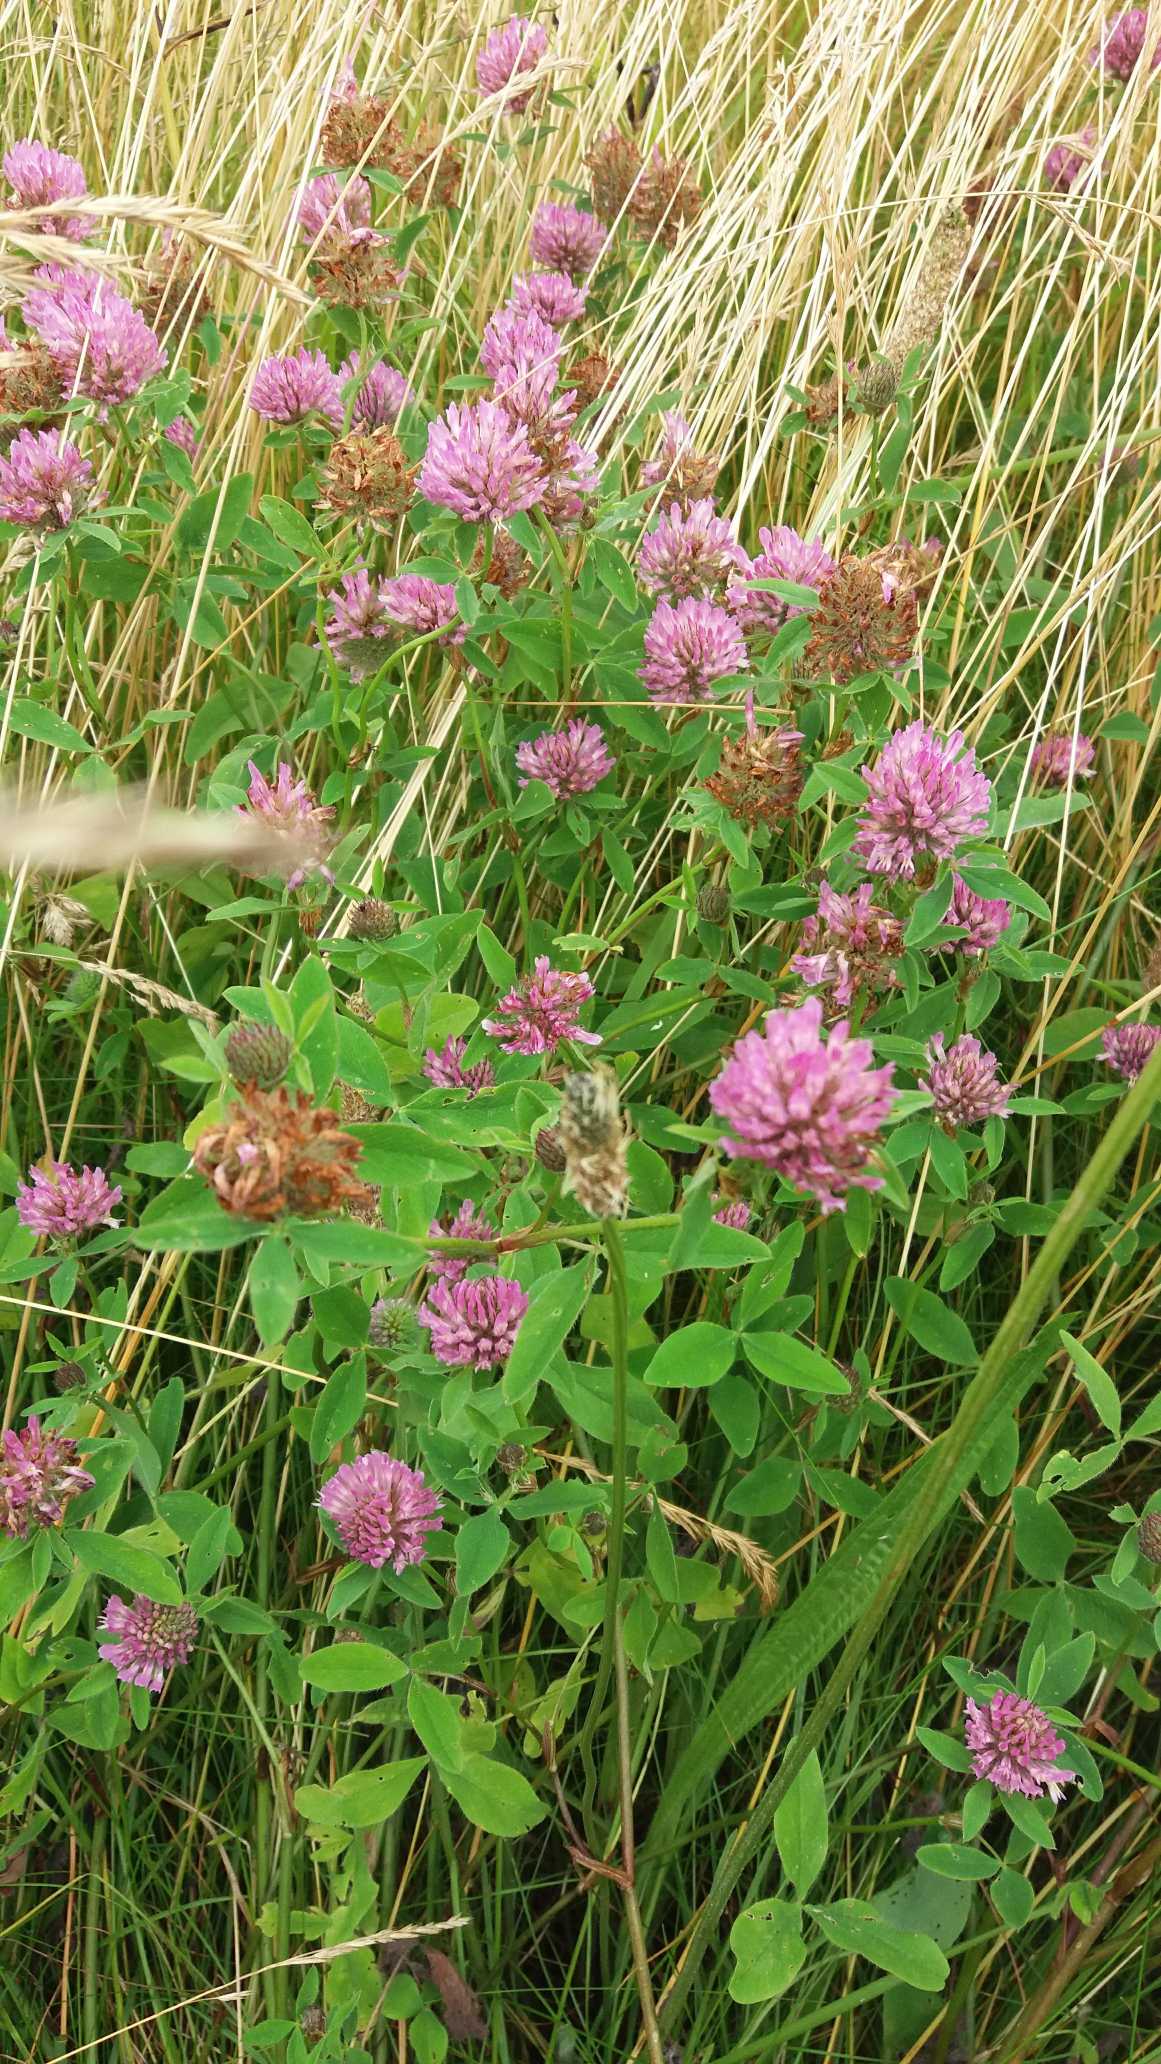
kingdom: Plantae
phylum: Tracheophyta
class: Magnoliopsida
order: Fabales
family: Fabaceae
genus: Trifolium
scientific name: Trifolium pratense
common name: Rød-kløver
